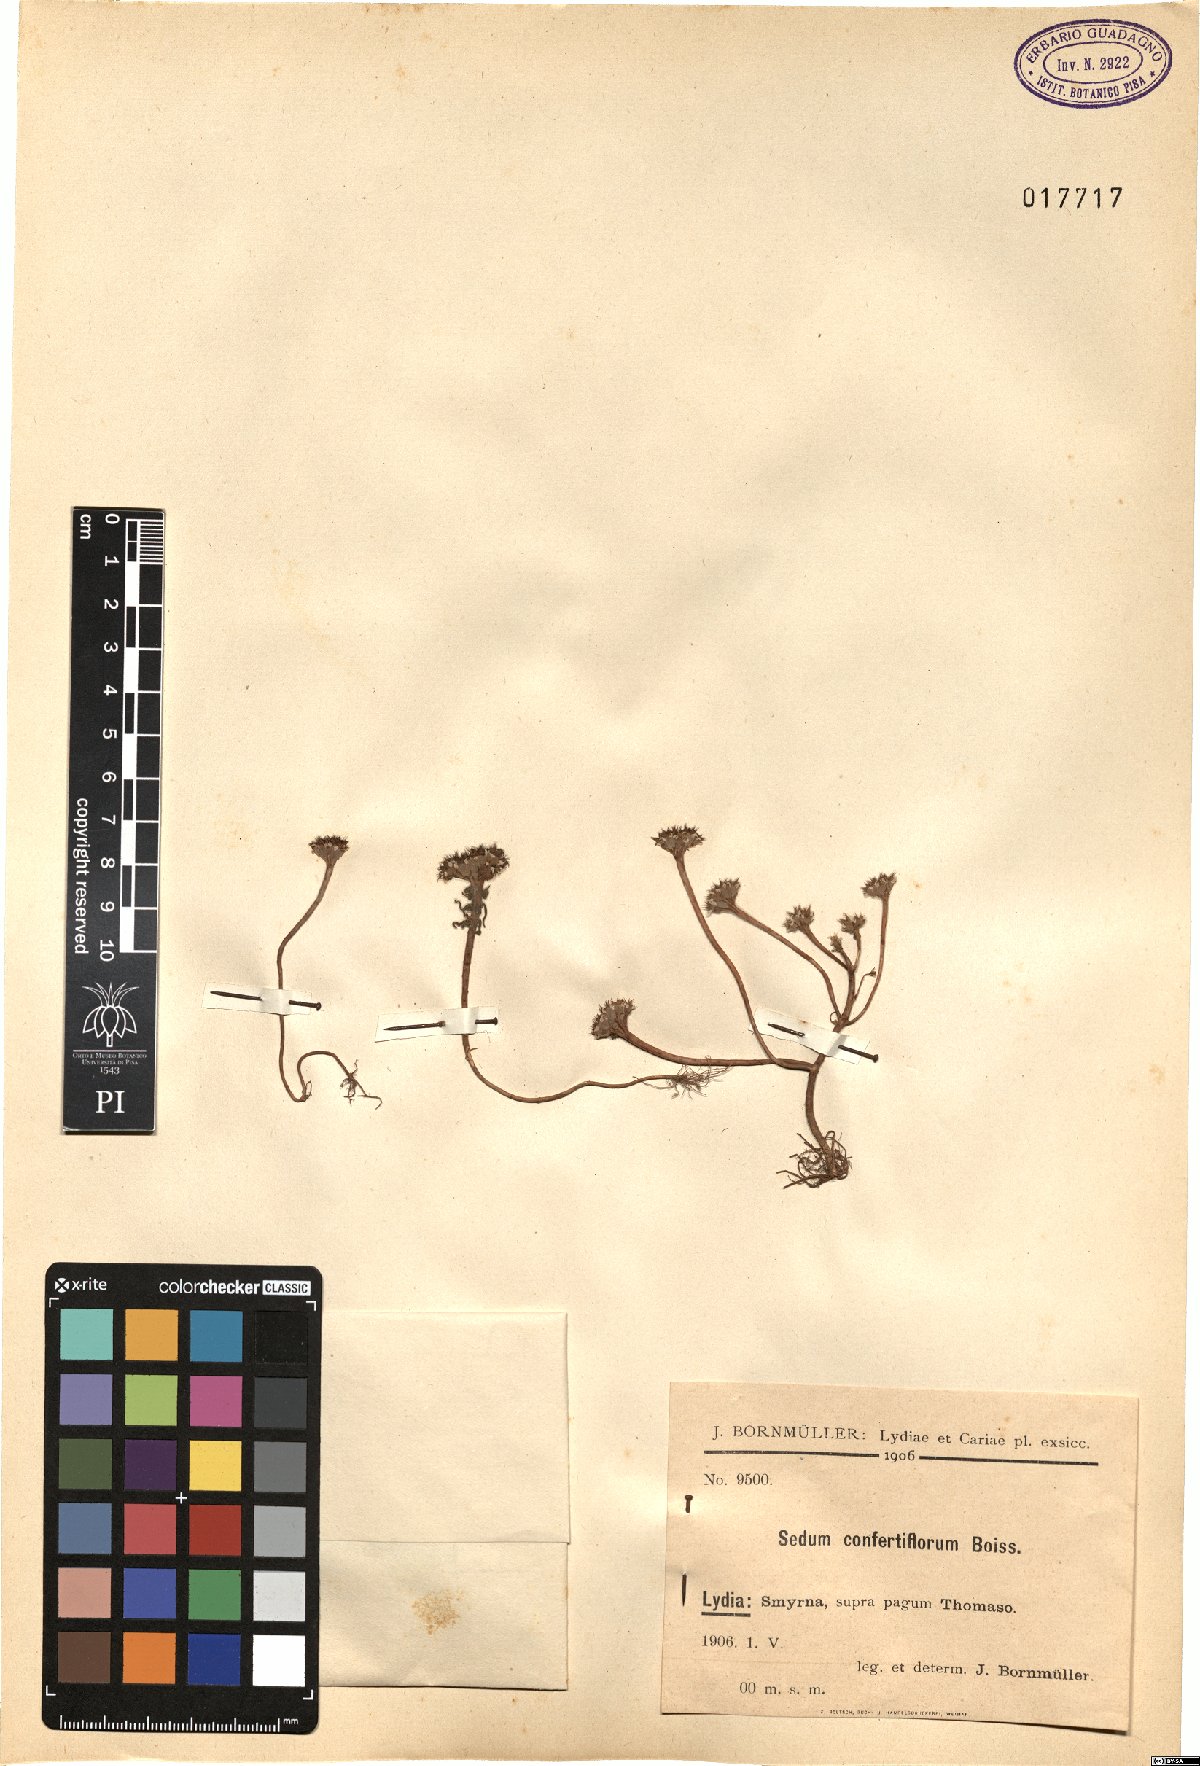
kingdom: Plantae
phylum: Tracheophyta
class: Magnoliopsida
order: Saxifragales
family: Crassulaceae
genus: Sedum
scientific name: Sedum confertiflorum
